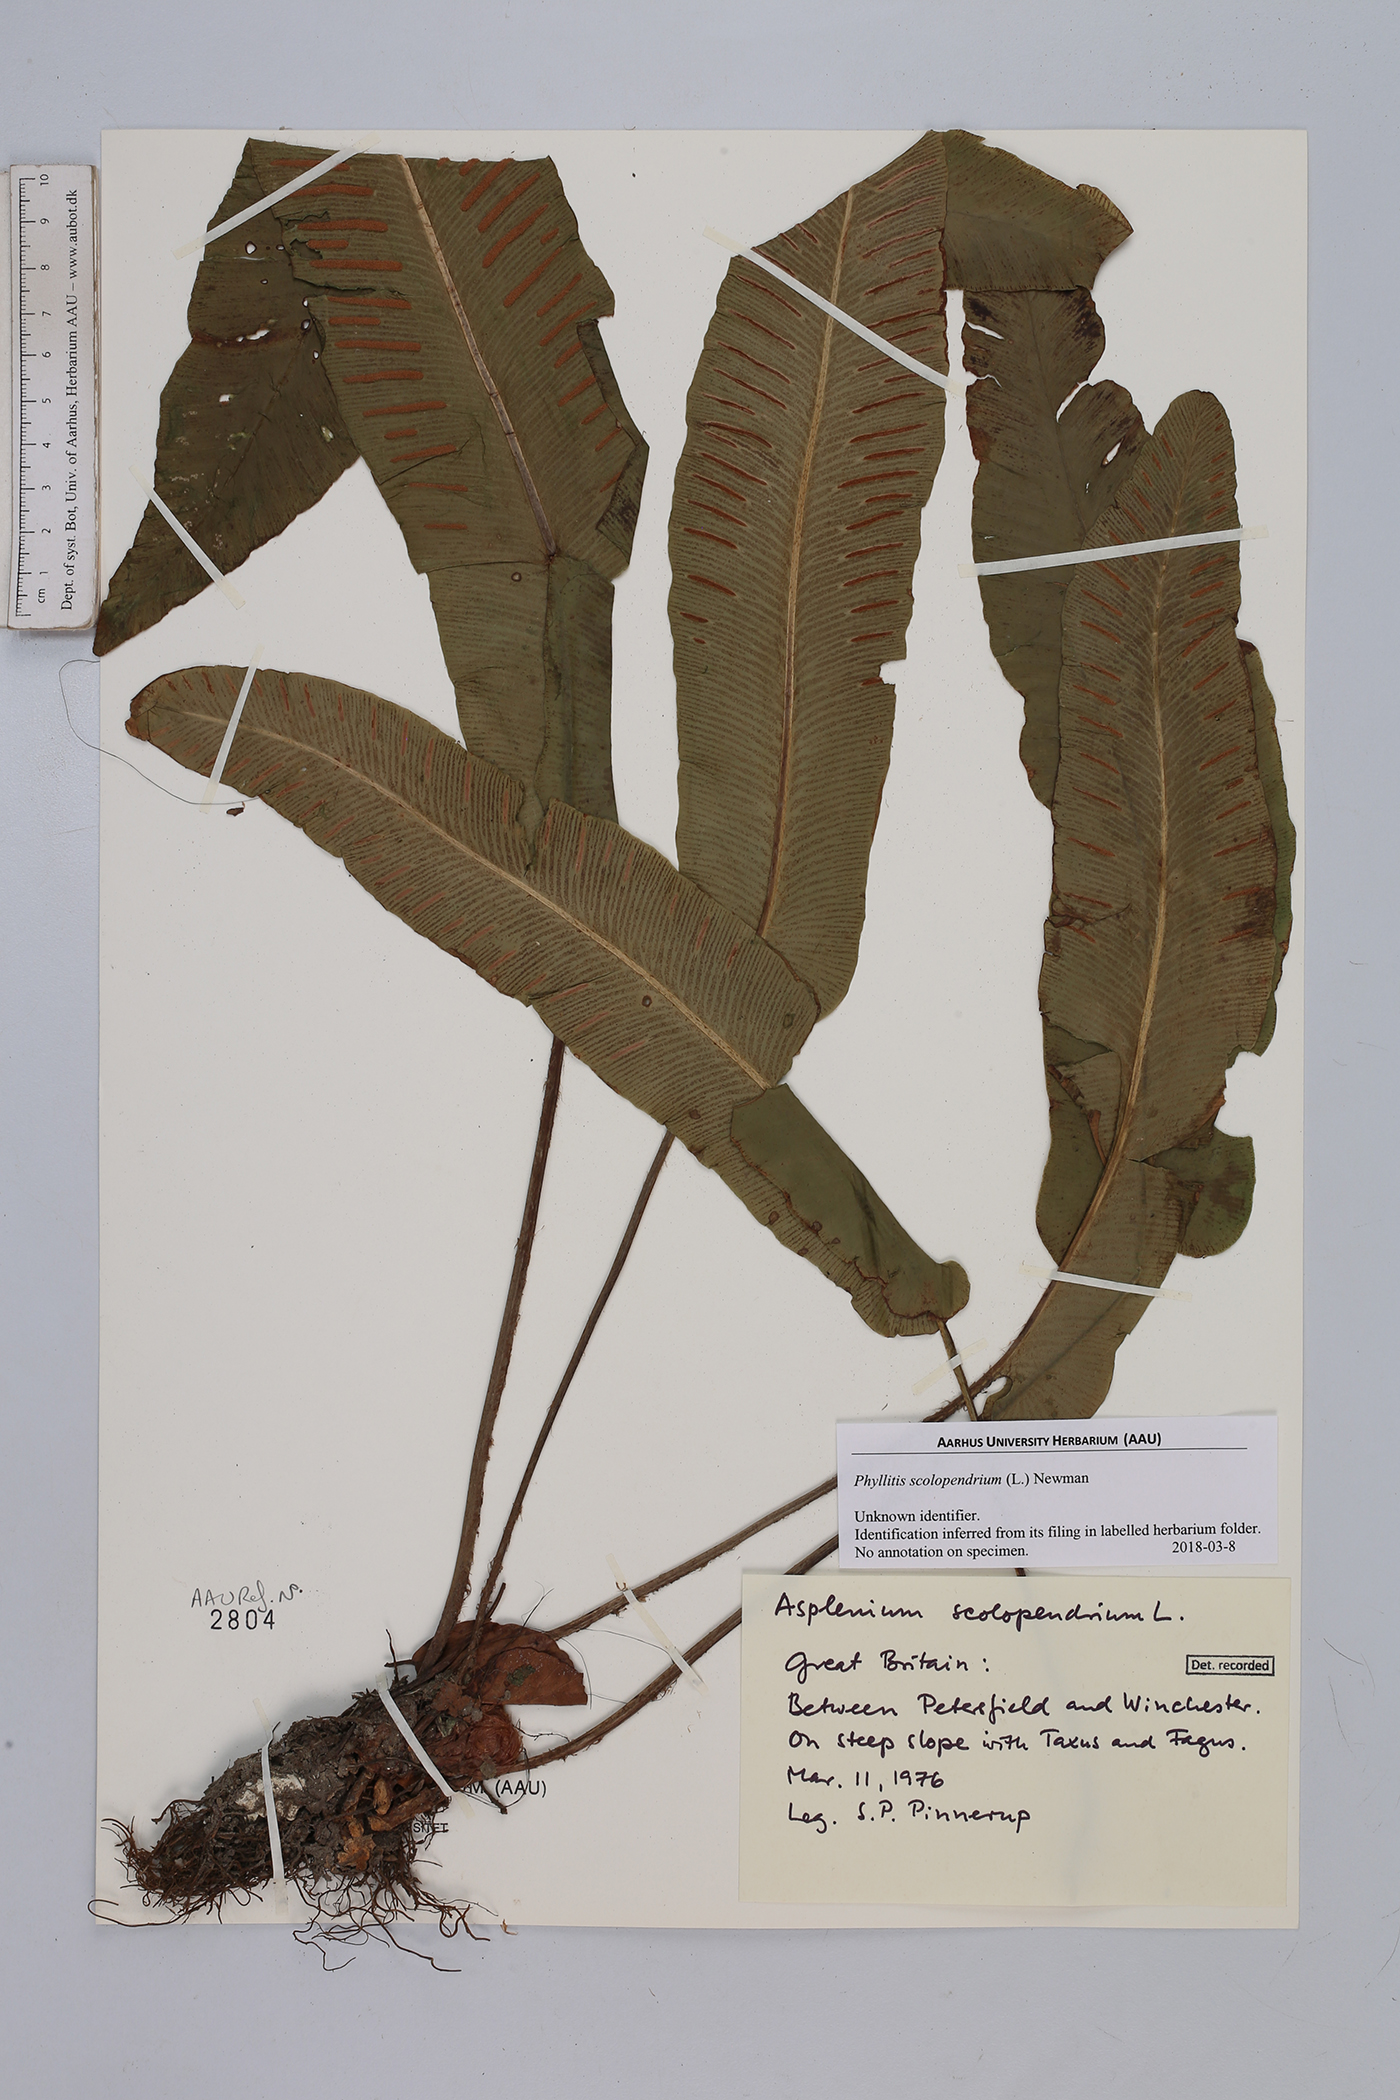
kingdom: Plantae
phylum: Tracheophyta
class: Polypodiopsida
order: Polypodiales
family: Aspleniaceae
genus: Asplenium
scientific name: Asplenium scolopendrium
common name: Hart's-tongue fern
